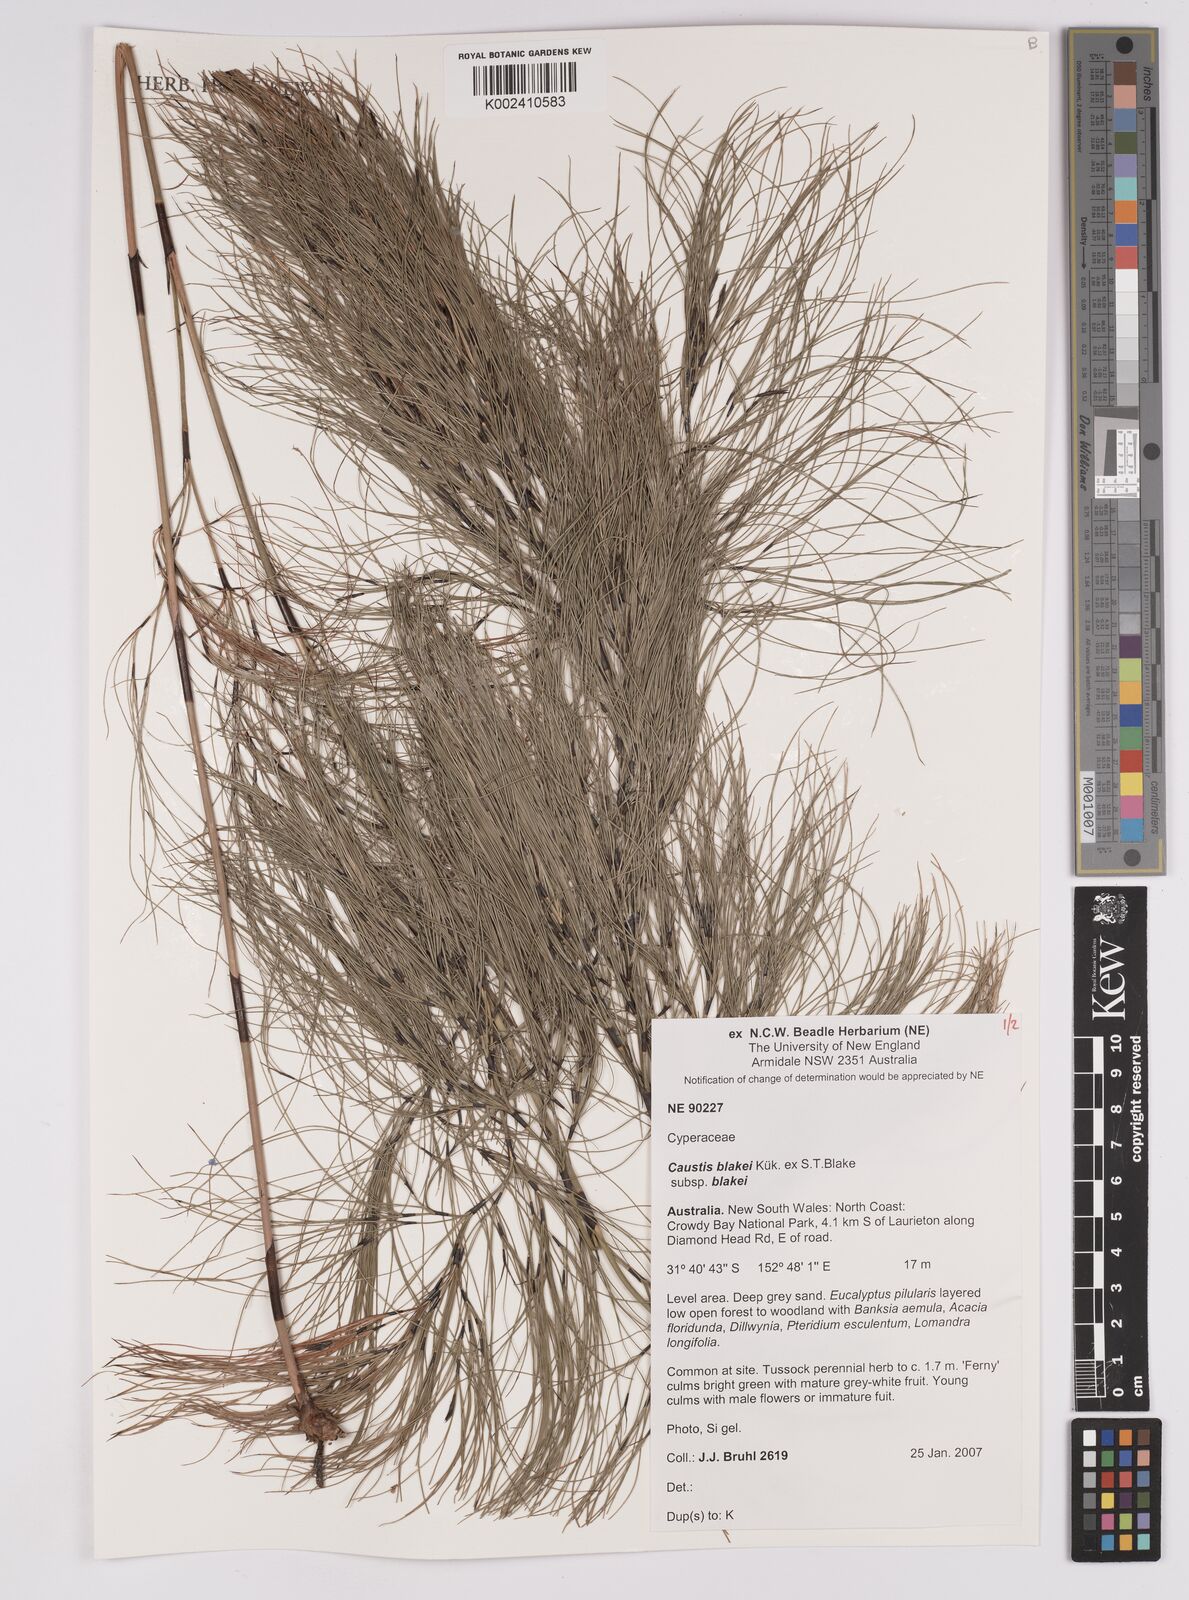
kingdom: Plantae
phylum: Tracheophyta
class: Liliopsida
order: Poales
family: Cyperaceae
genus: Caustis
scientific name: Caustis blakei
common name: Foxtail-fern
